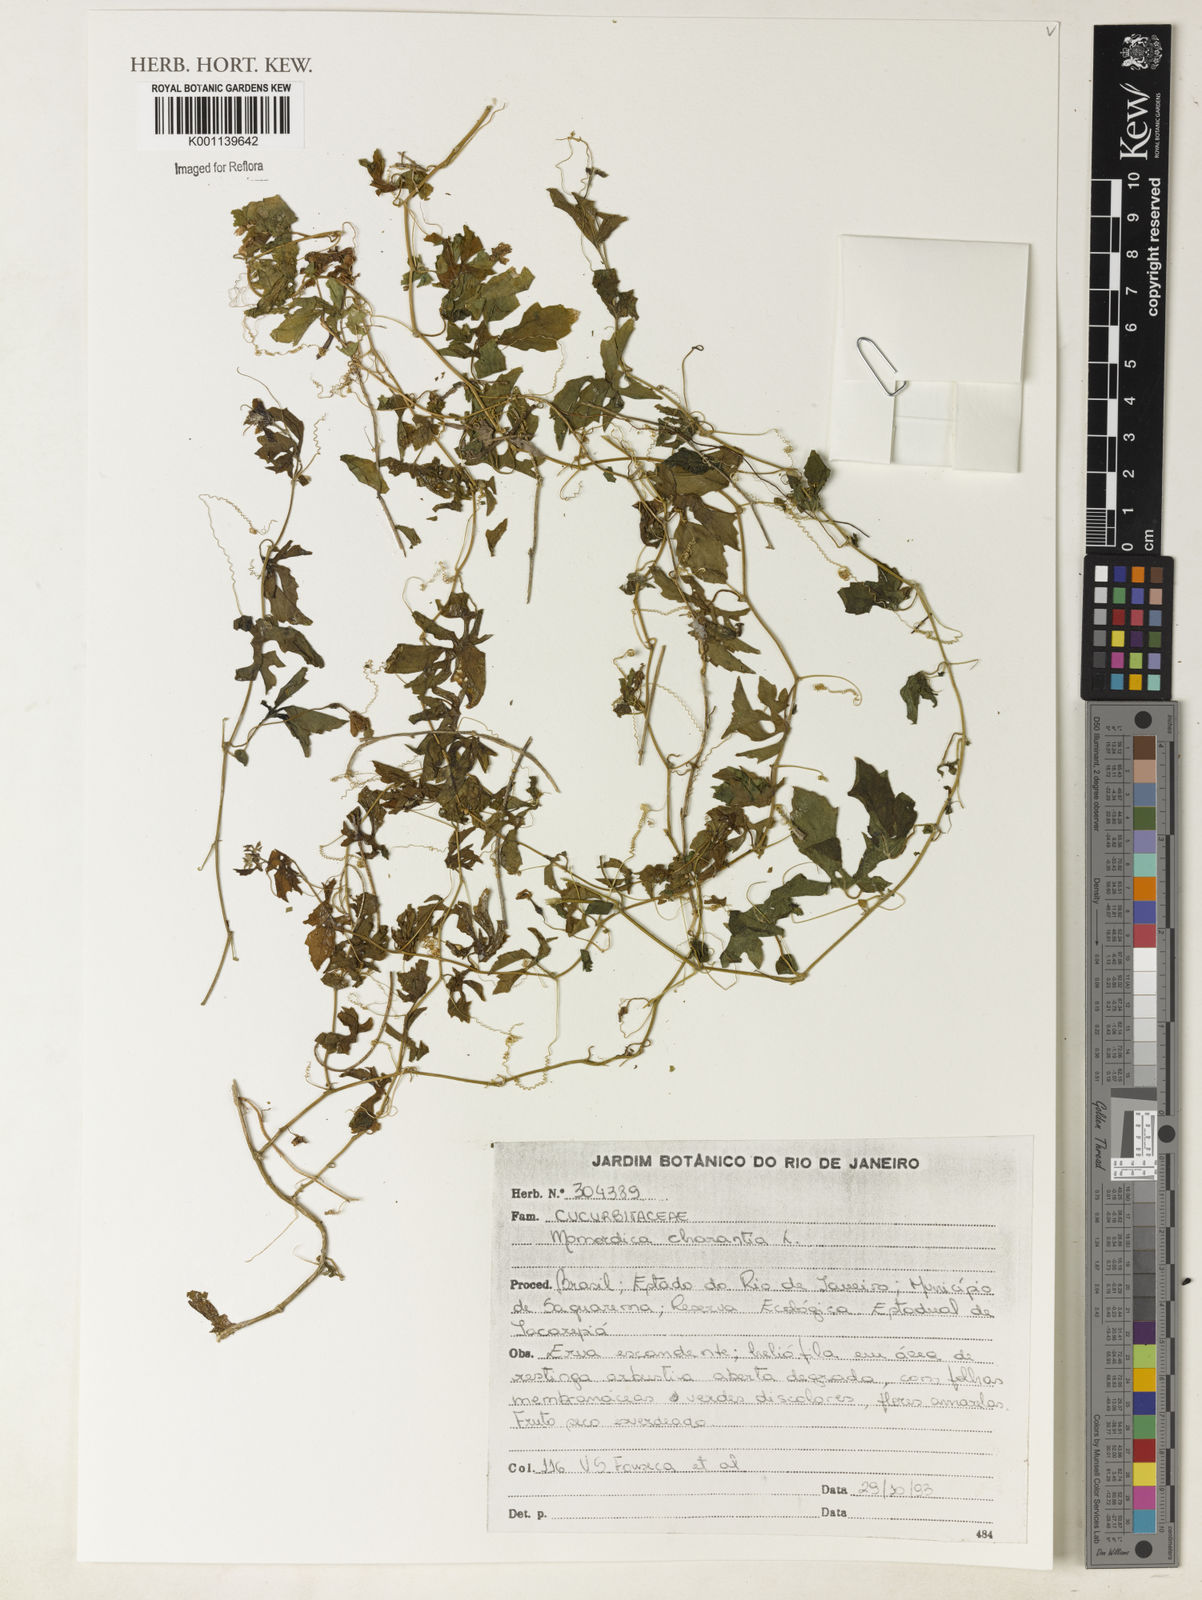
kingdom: Plantae
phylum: Tracheophyta
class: Magnoliopsida
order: Cucurbitales
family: Cucurbitaceae
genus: Momordica
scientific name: Momordica charantia
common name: Balsampear
